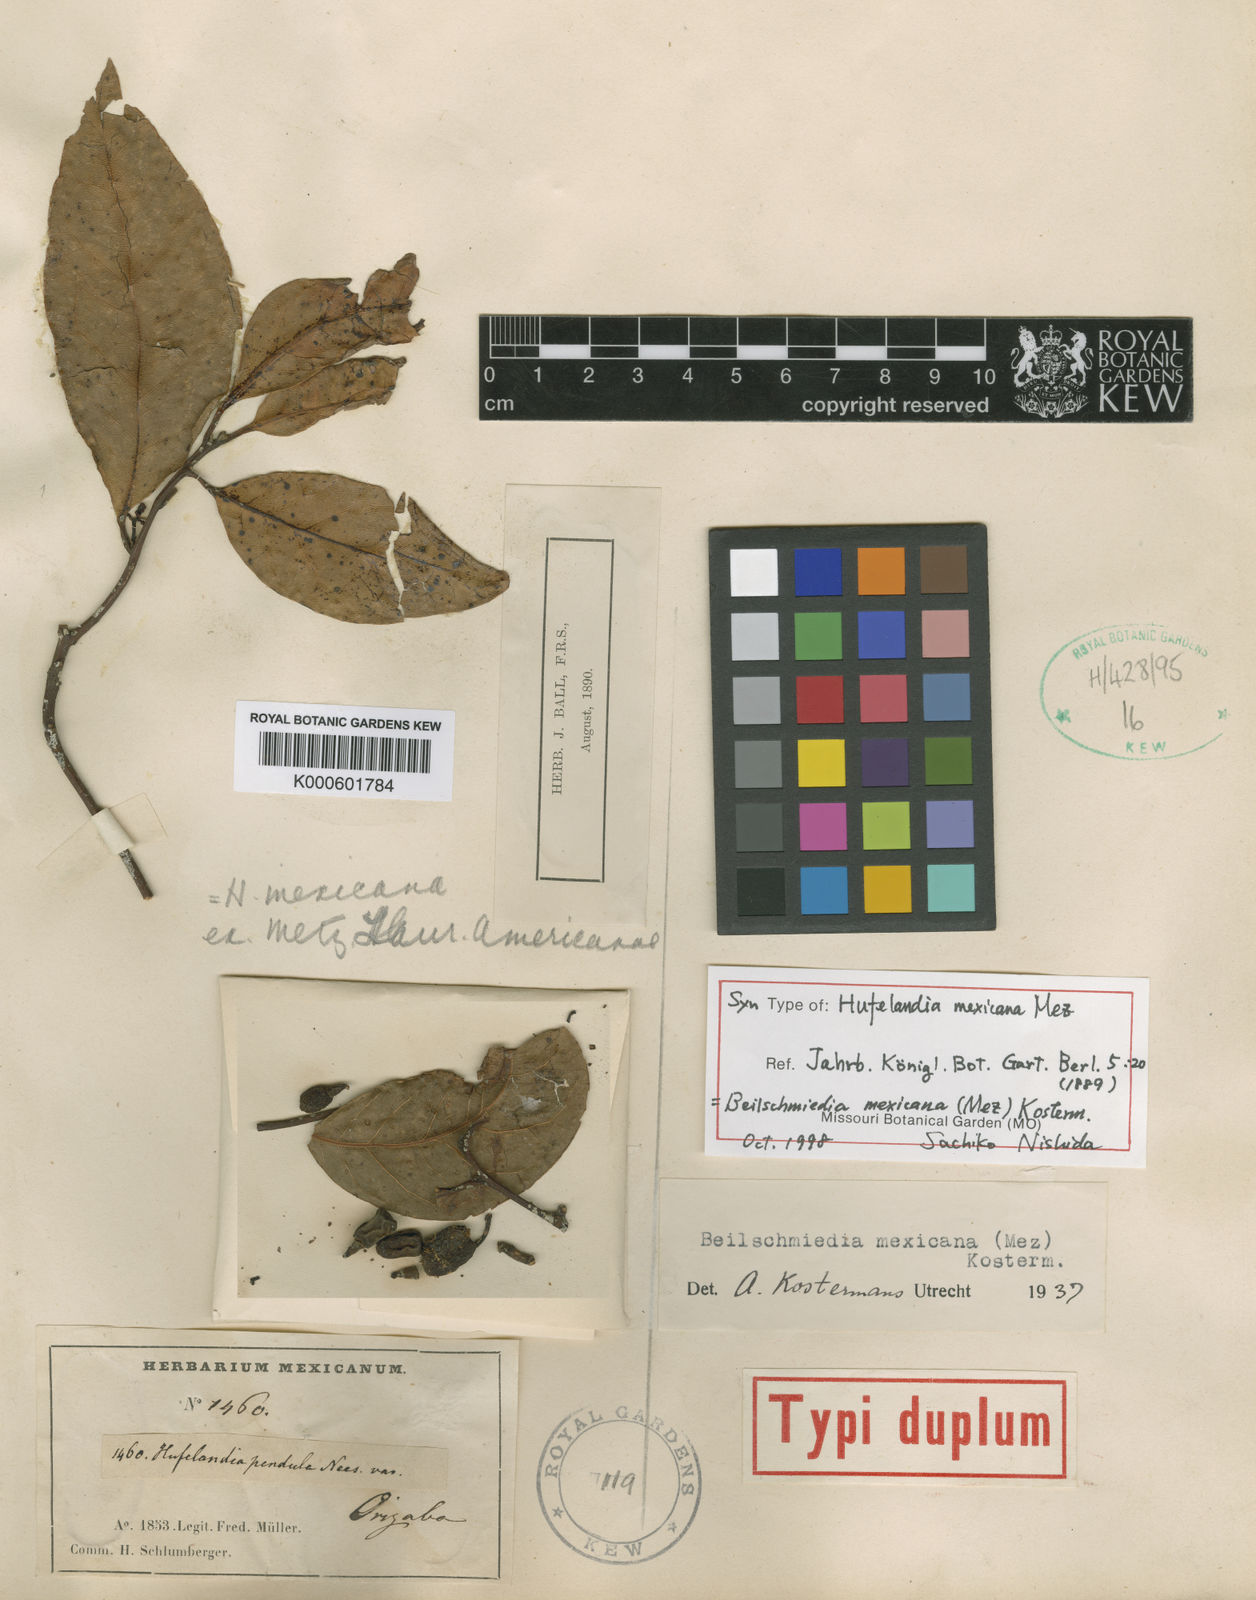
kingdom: Plantae
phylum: Tracheophyta
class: Magnoliopsida
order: Laurales
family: Lauraceae
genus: Beilschmiedia
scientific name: Beilschmiedia mexicana
